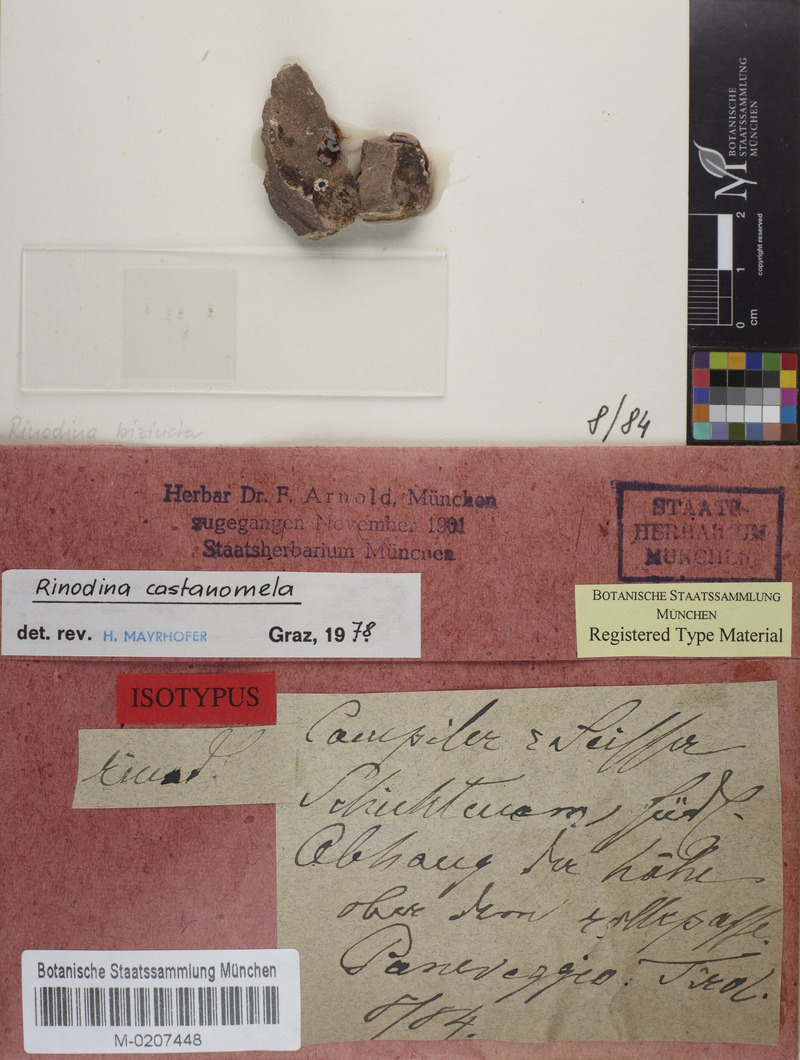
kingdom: Fungi
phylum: Ascomycota
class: Lecanoromycetes
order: Caliciales
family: Physciaceae
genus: Rinodina
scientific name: Rinodina castanomela
